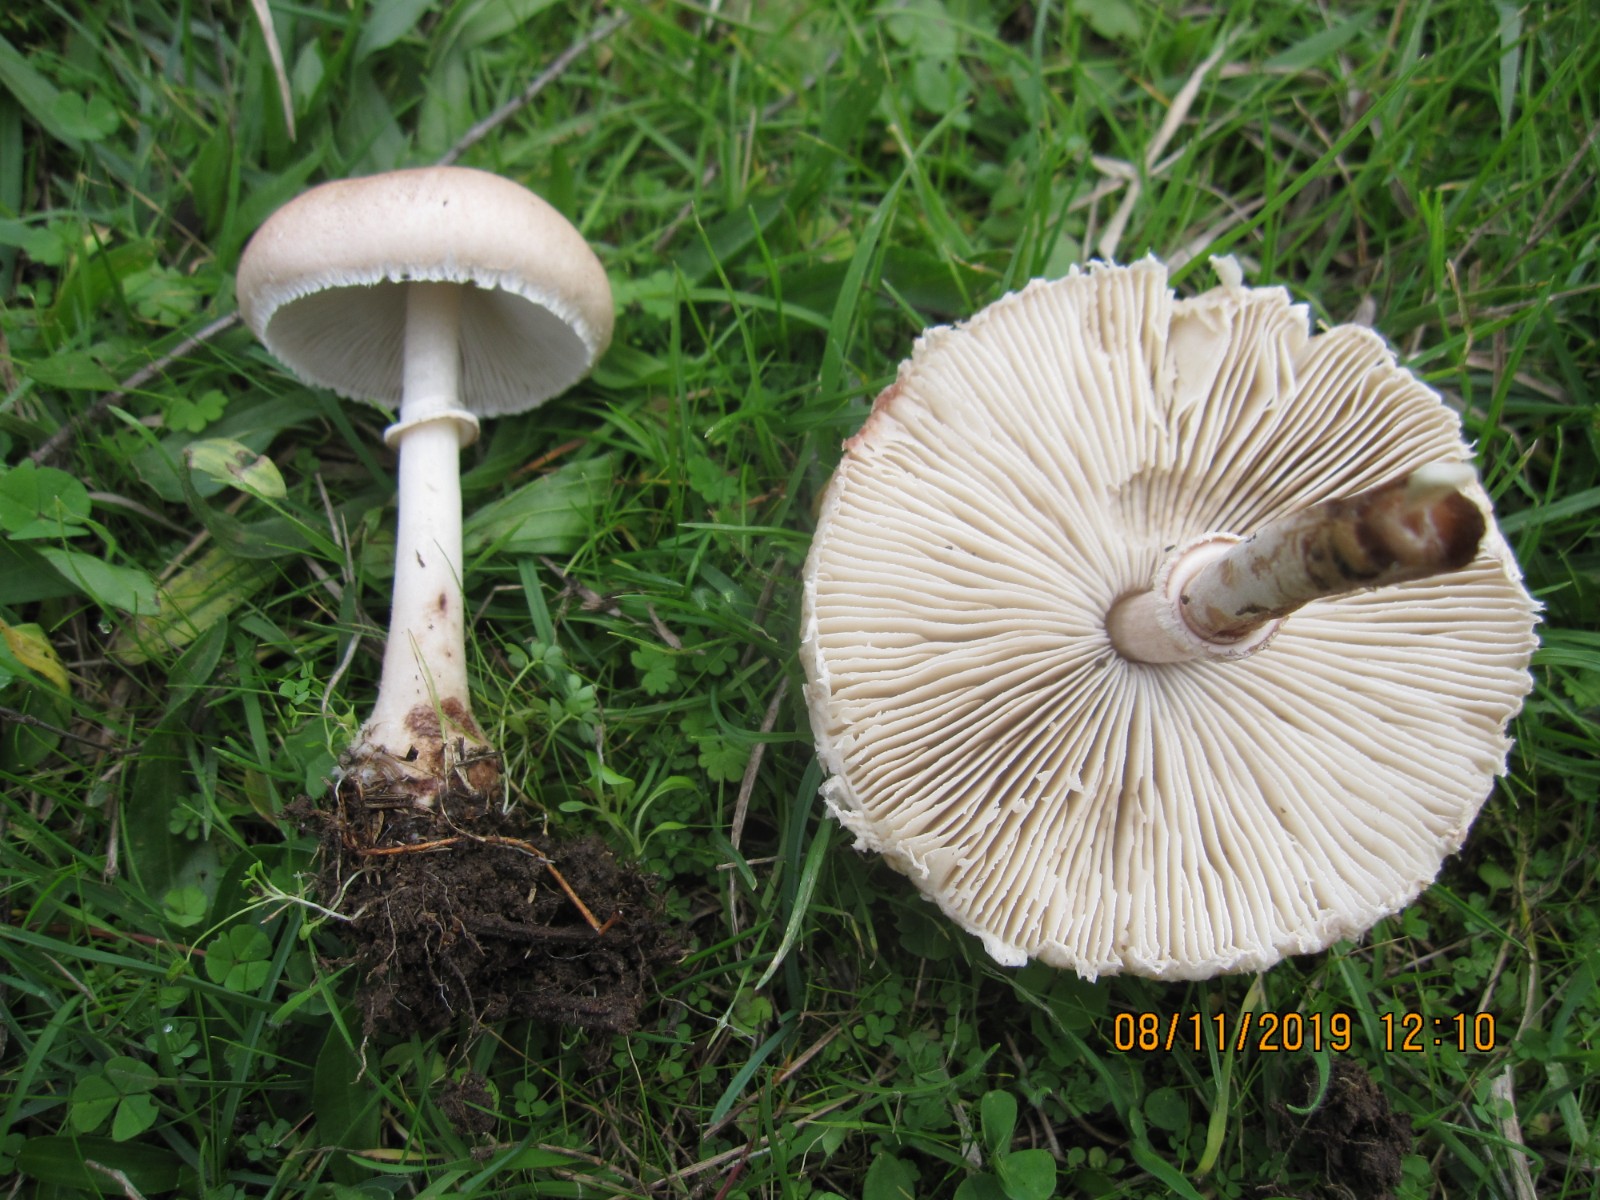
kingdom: Fungi
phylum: Basidiomycota
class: Agaricomycetes
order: Agaricales
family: Agaricaceae
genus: Macrolepiota
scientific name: Macrolepiota excoriata
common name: mark-kæmpeparasolhat
